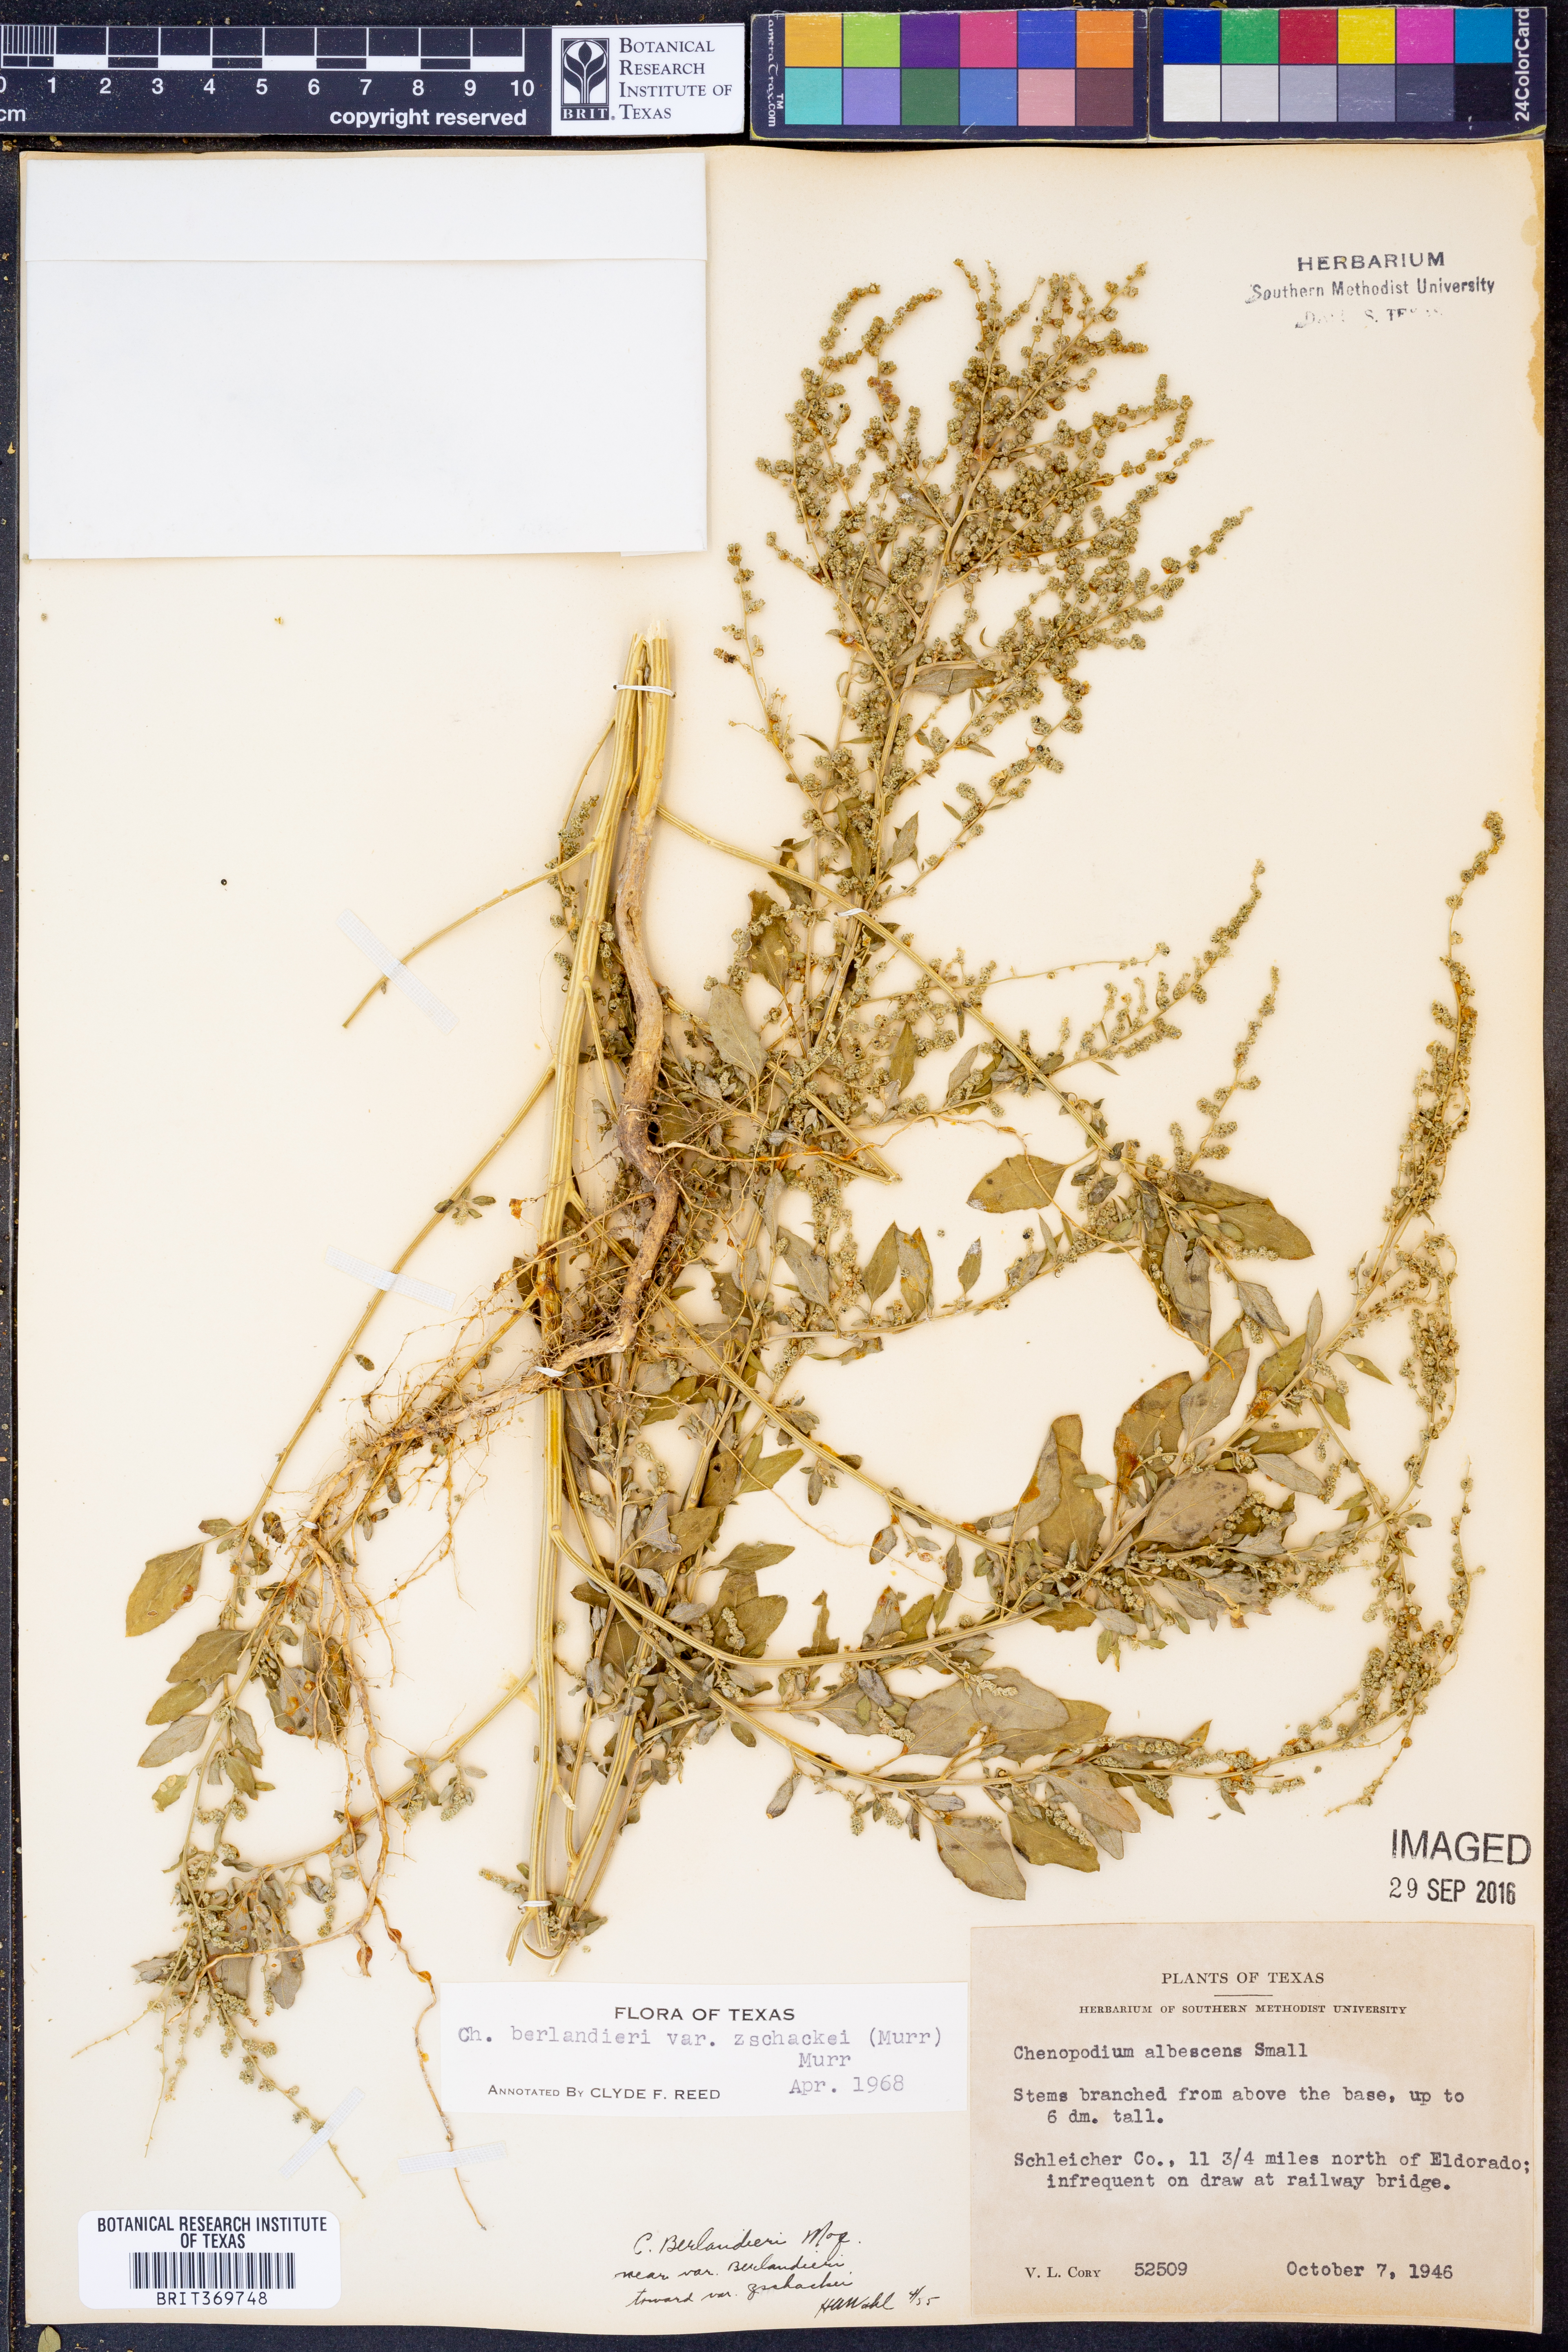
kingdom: Plantae
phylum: Tracheophyta
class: Magnoliopsida
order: Caryophyllales
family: Amaranthaceae
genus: Chenopodium
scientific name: Chenopodium berlandieri
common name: Pit-seed goosefoot
